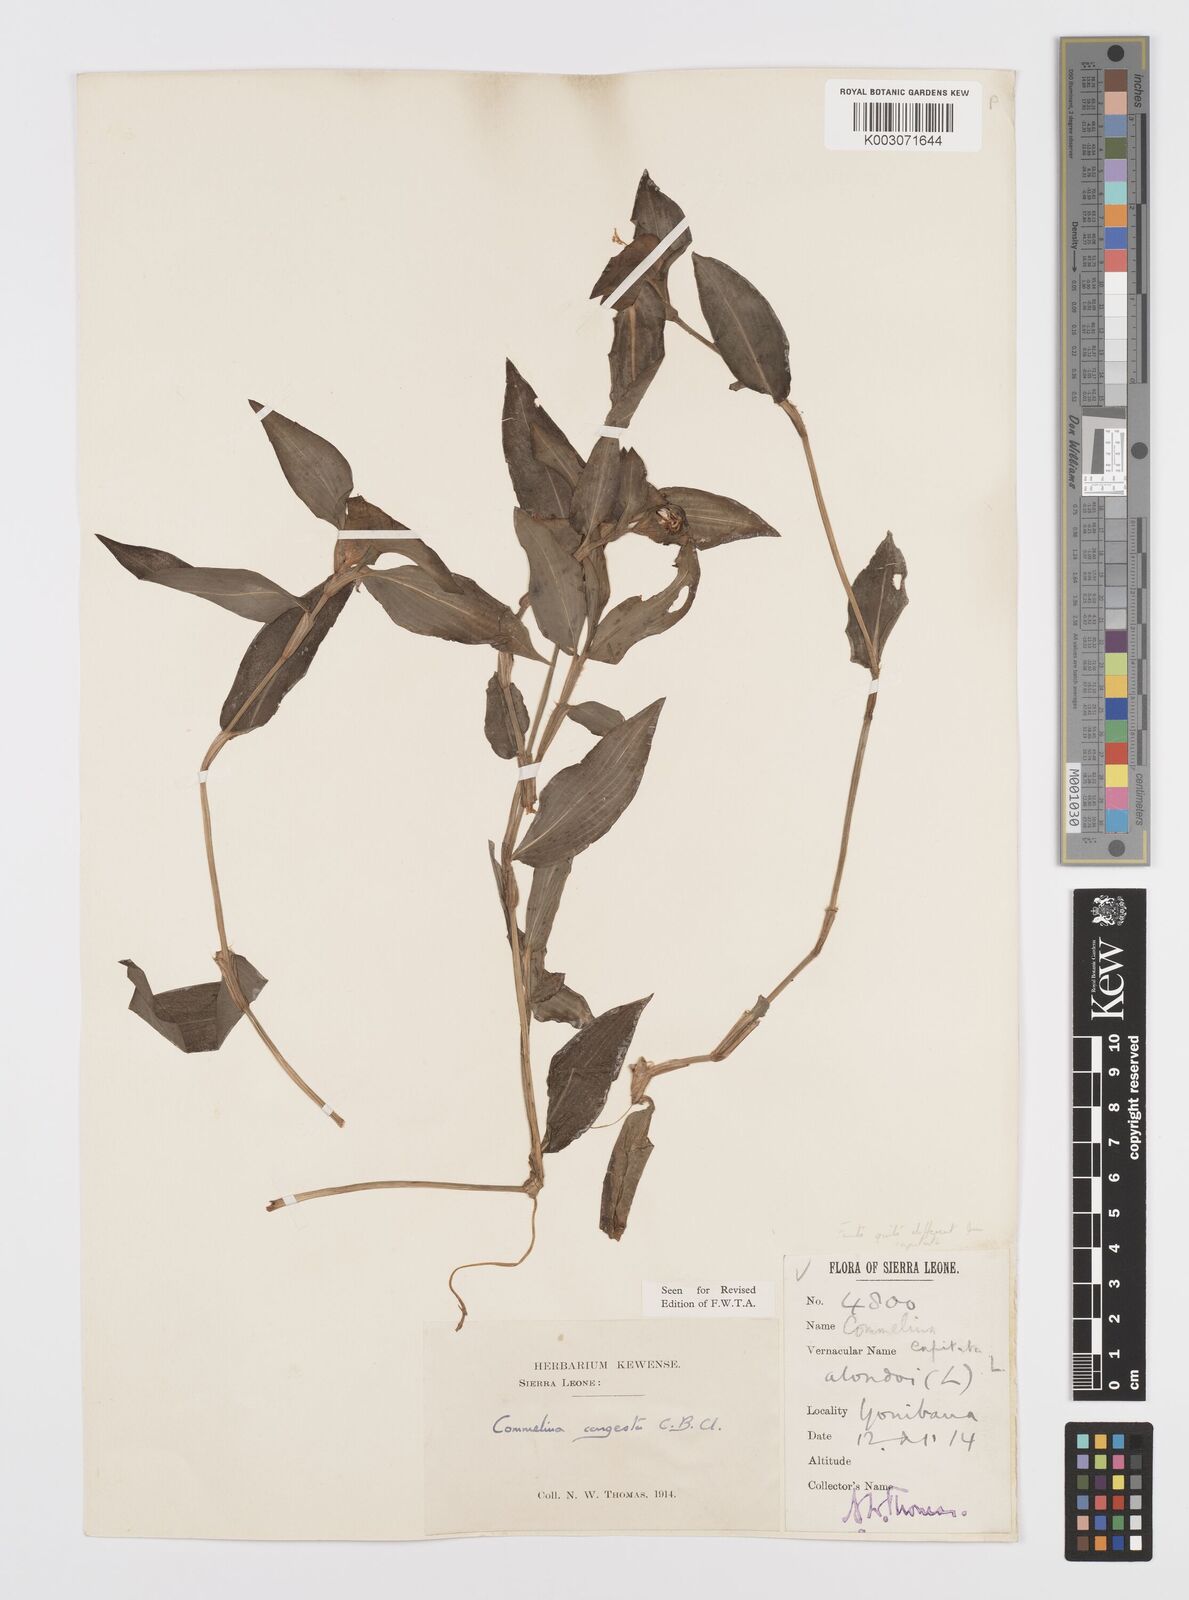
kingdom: Plantae
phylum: Tracheophyta
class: Liliopsida
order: Commelinales
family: Commelinaceae
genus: Commelina
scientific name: Commelina congesta
